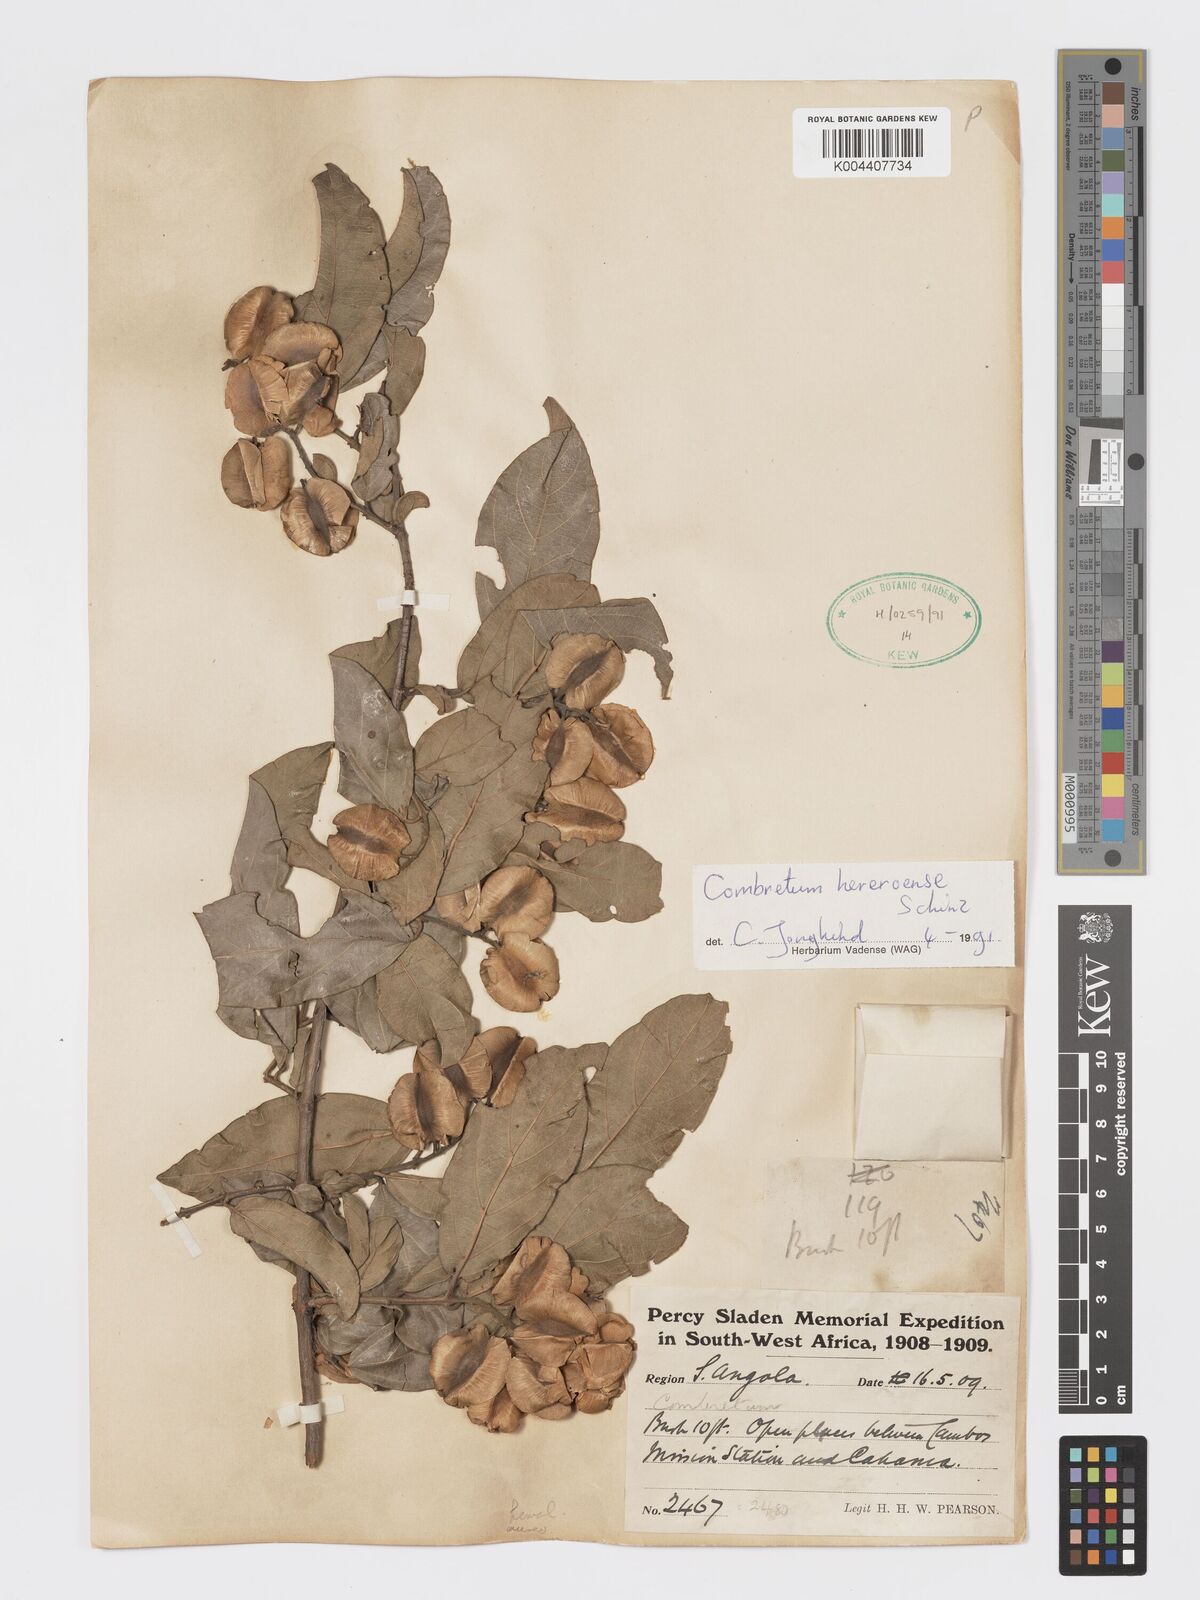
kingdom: Plantae
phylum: Tracheophyta
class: Magnoliopsida
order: Myrtales
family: Combretaceae
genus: Combretum
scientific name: Combretum hereroense
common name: Russet bushwillow
